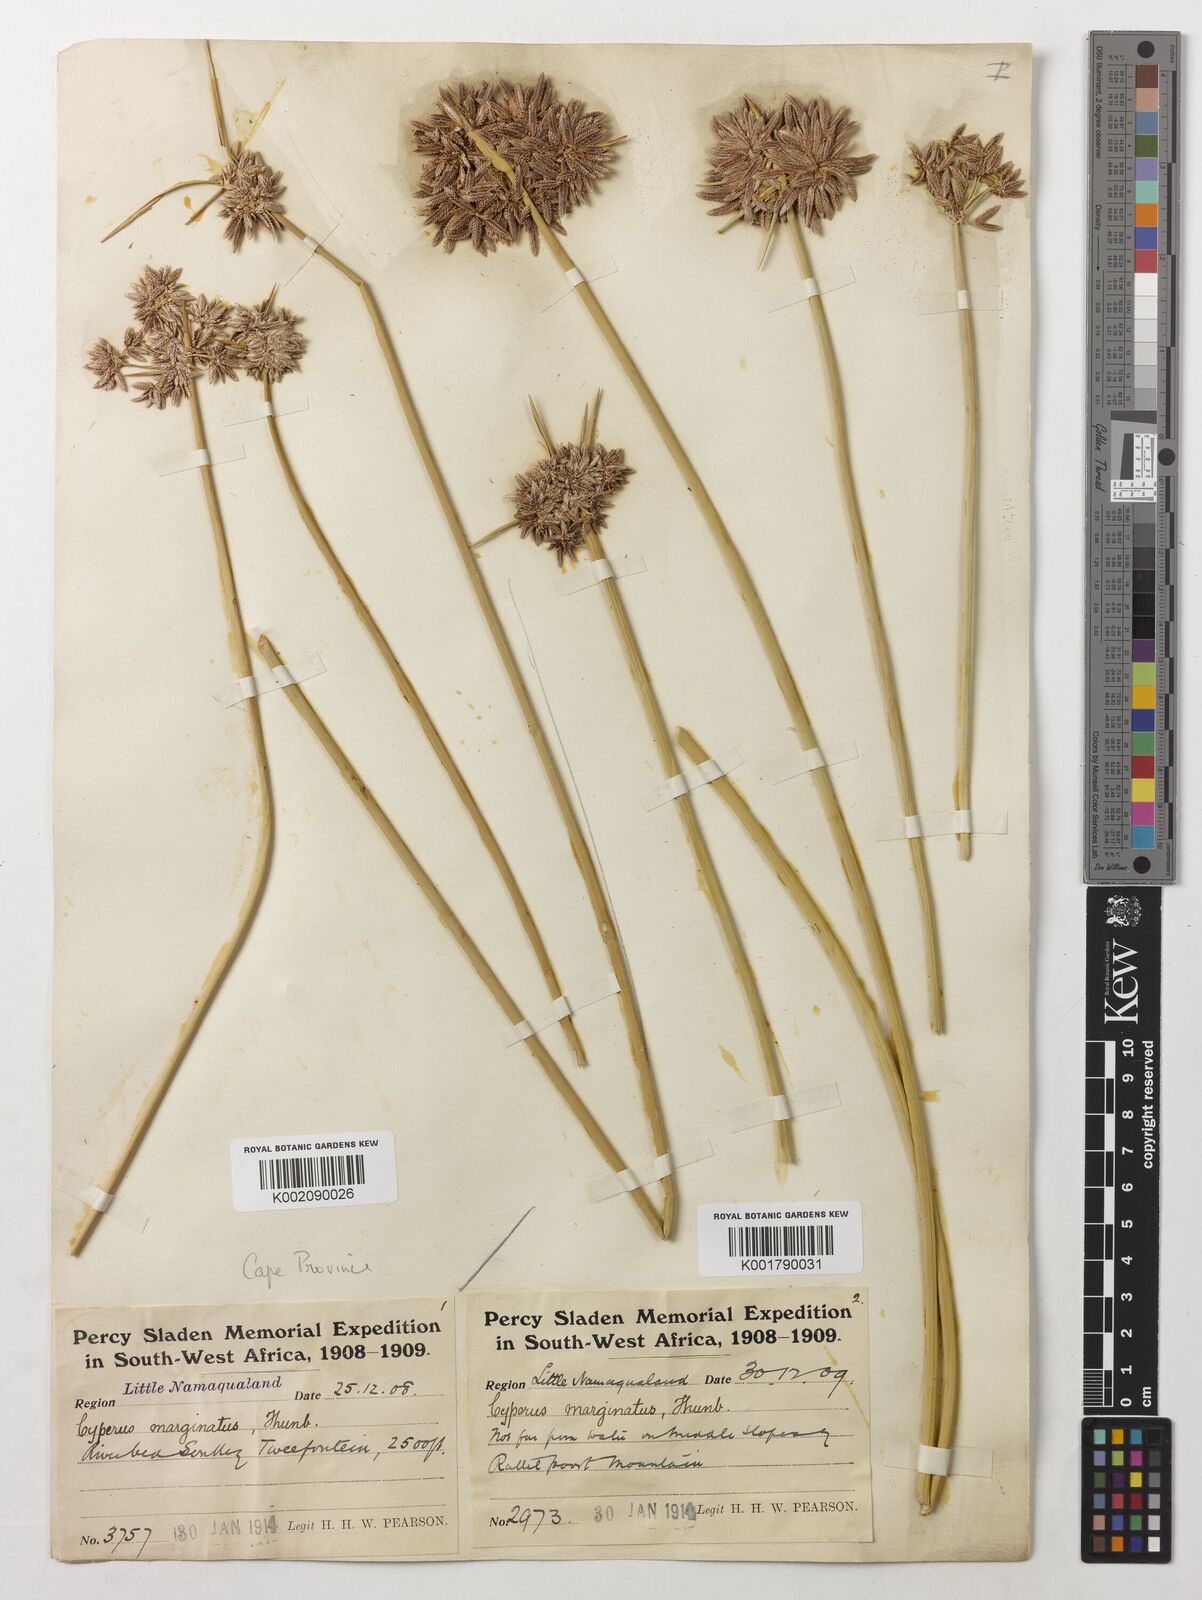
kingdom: Plantae
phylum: Tracheophyta
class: Liliopsida
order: Poales
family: Cyperaceae
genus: Cyperus
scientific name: Cyperus marginatus
